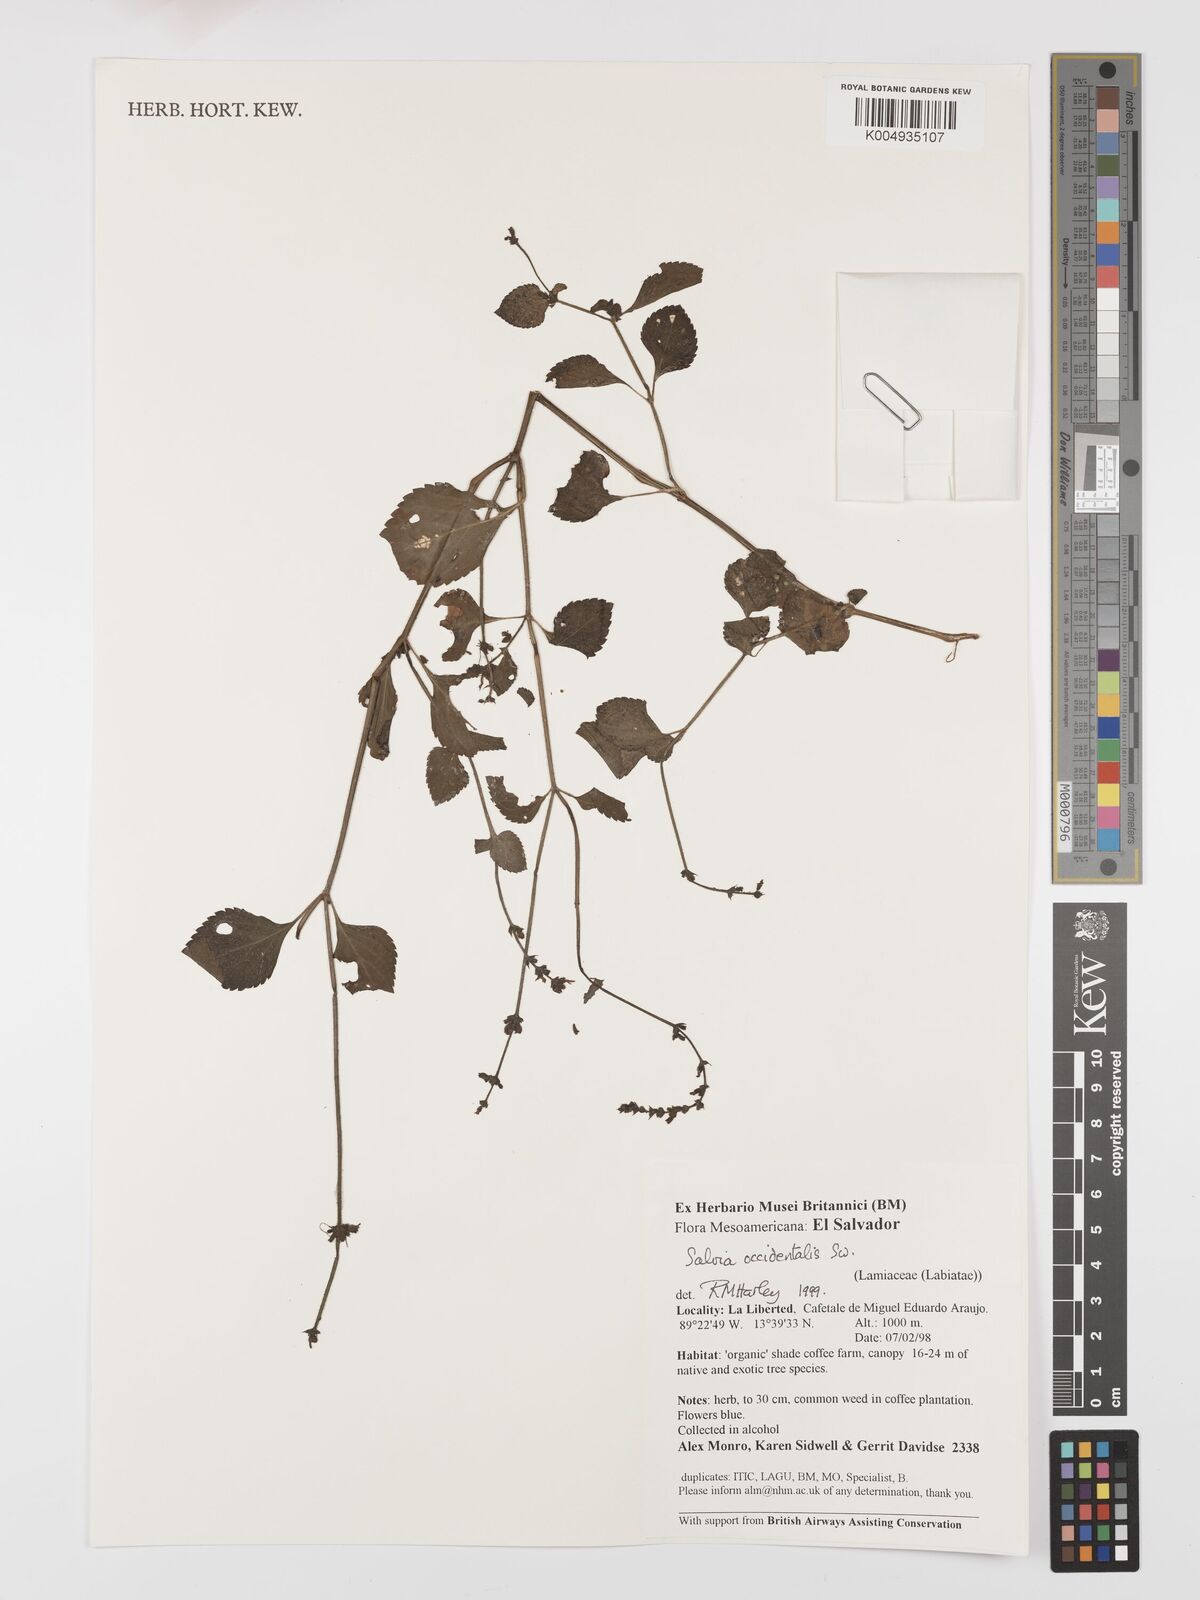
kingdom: Plantae
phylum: Tracheophyta
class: Magnoliopsida
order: Lamiales
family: Lamiaceae
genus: Salvia
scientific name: Salvia occidentalis
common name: West indian sage
